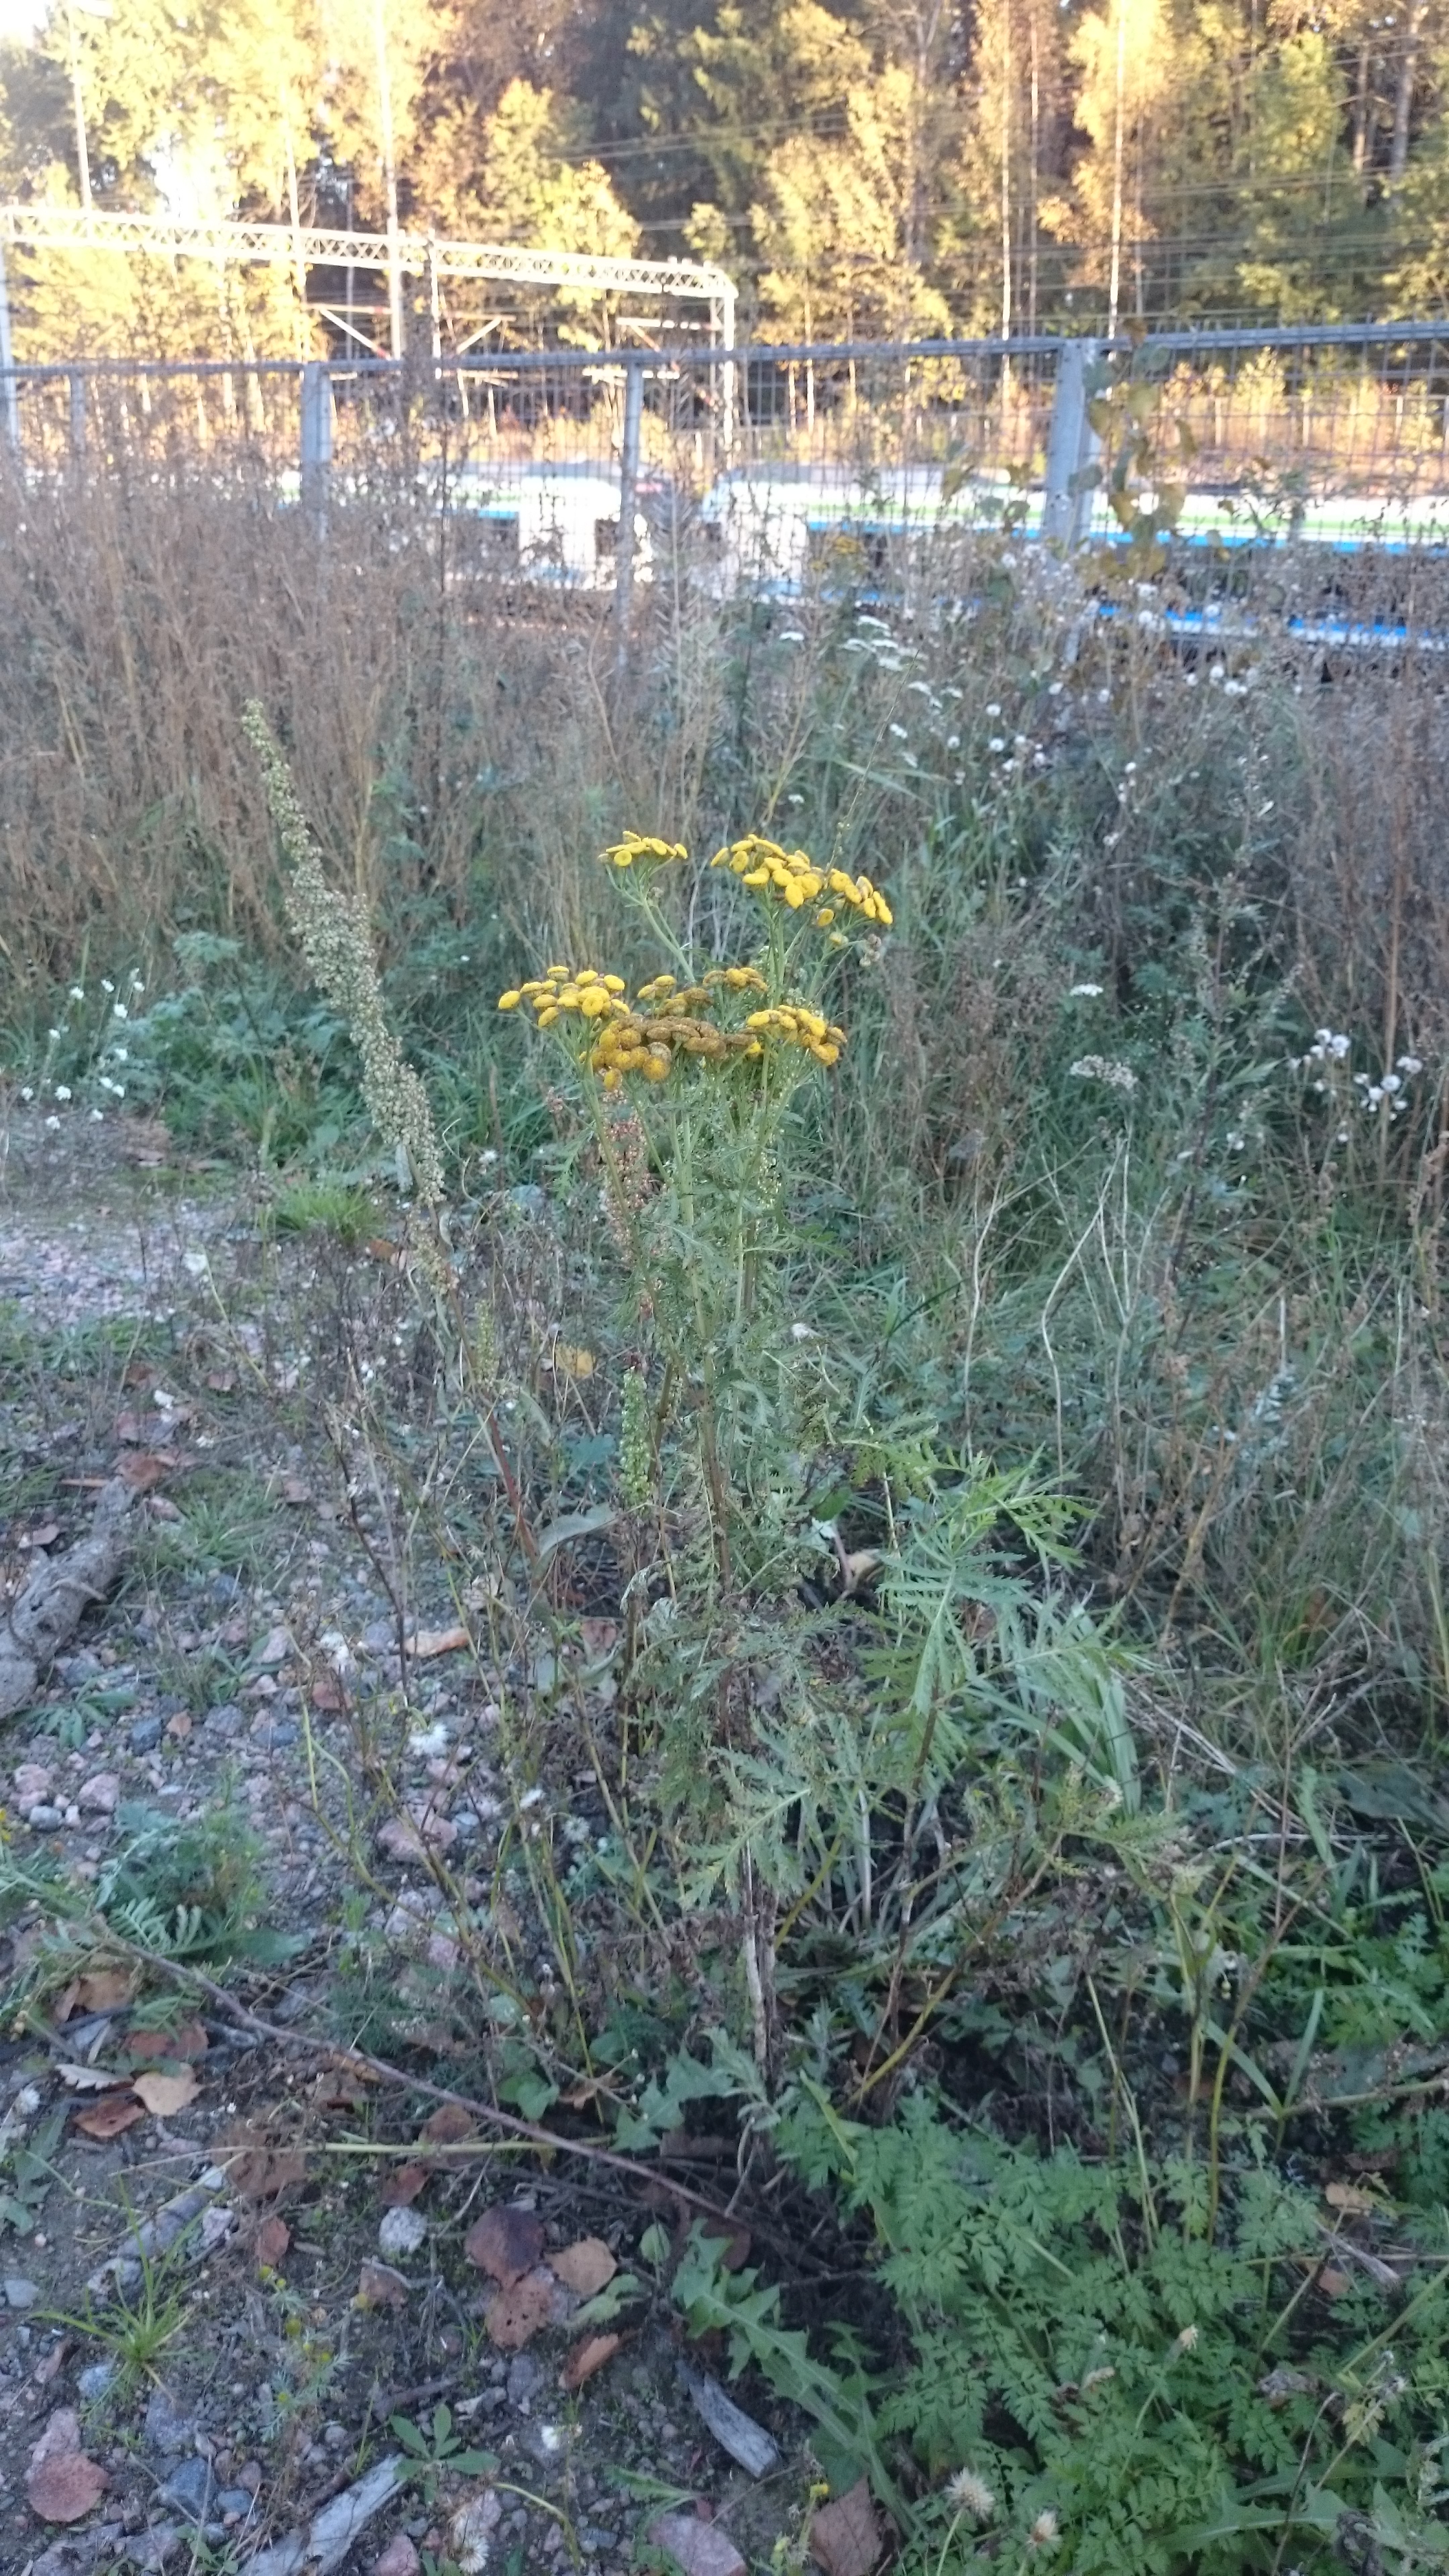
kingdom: Plantae
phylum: Tracheophyta
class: Magnoliopsida
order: Asterales
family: Asteraceae
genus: Tanacetum
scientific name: Tanacetum vulgare
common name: Common tansy
